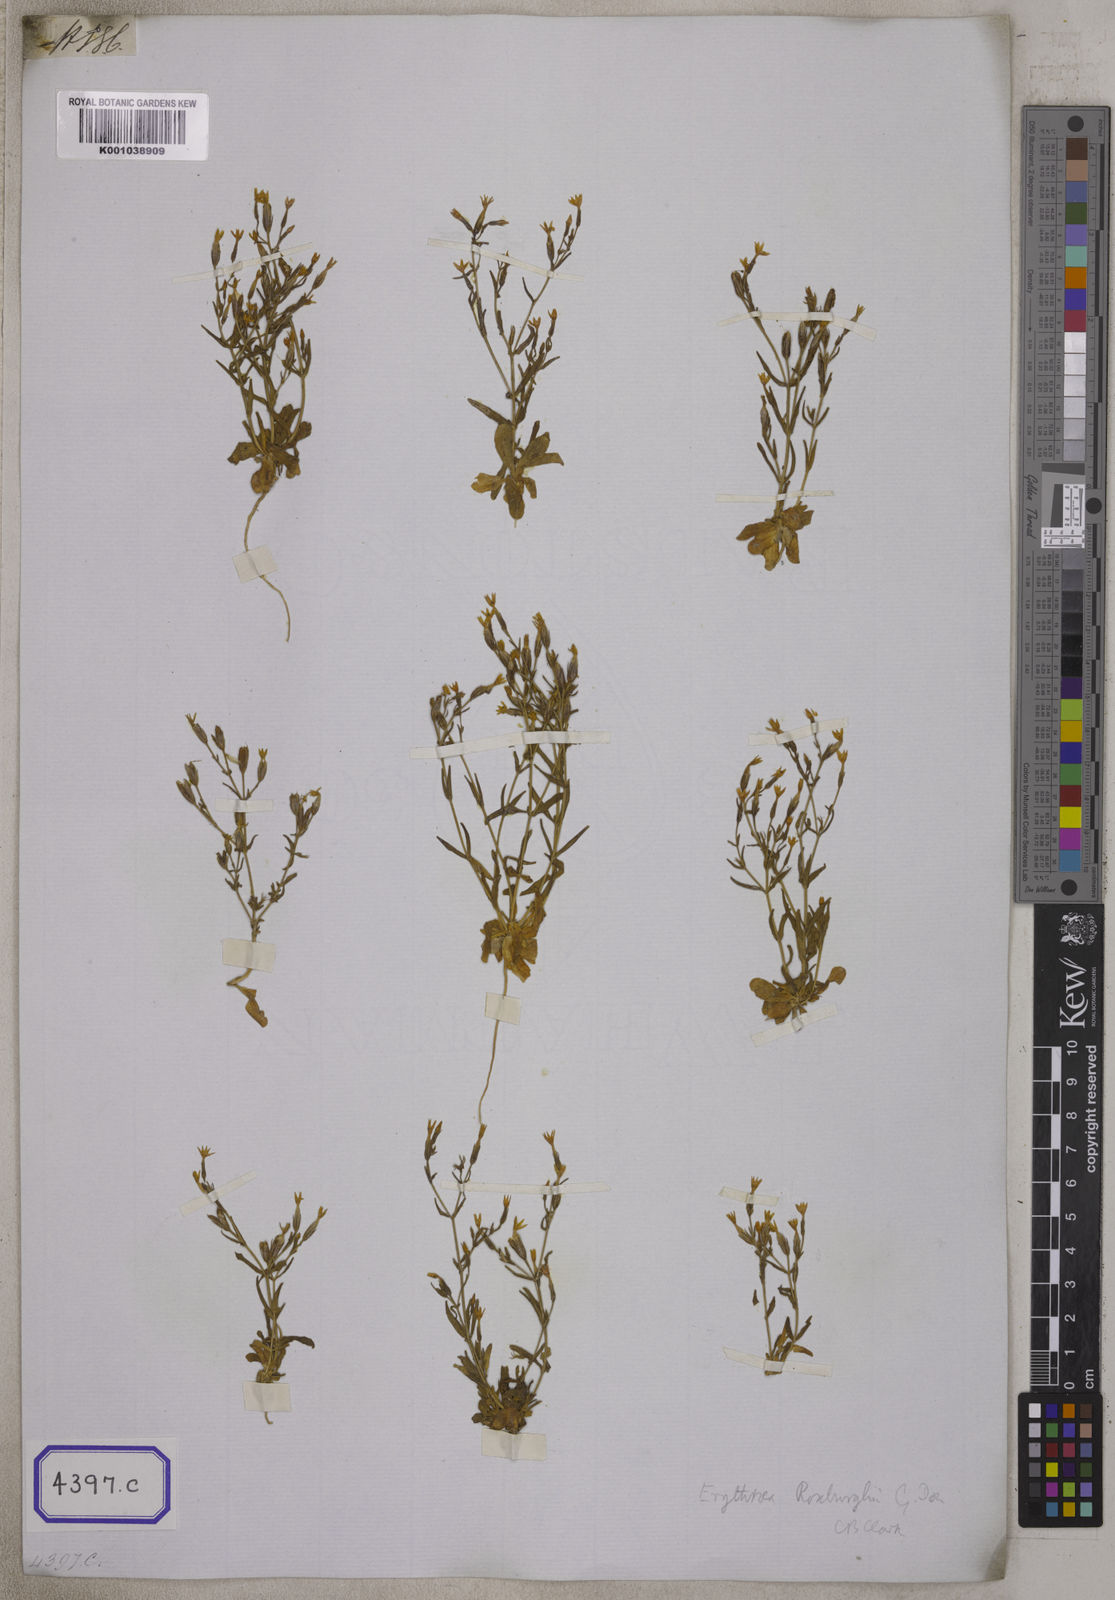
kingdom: Plantae
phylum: Tracheophyta
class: Magnoliopsida
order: Gentianales
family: Gentianaceae
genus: Centaurium
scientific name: Centaurium centaurioides
